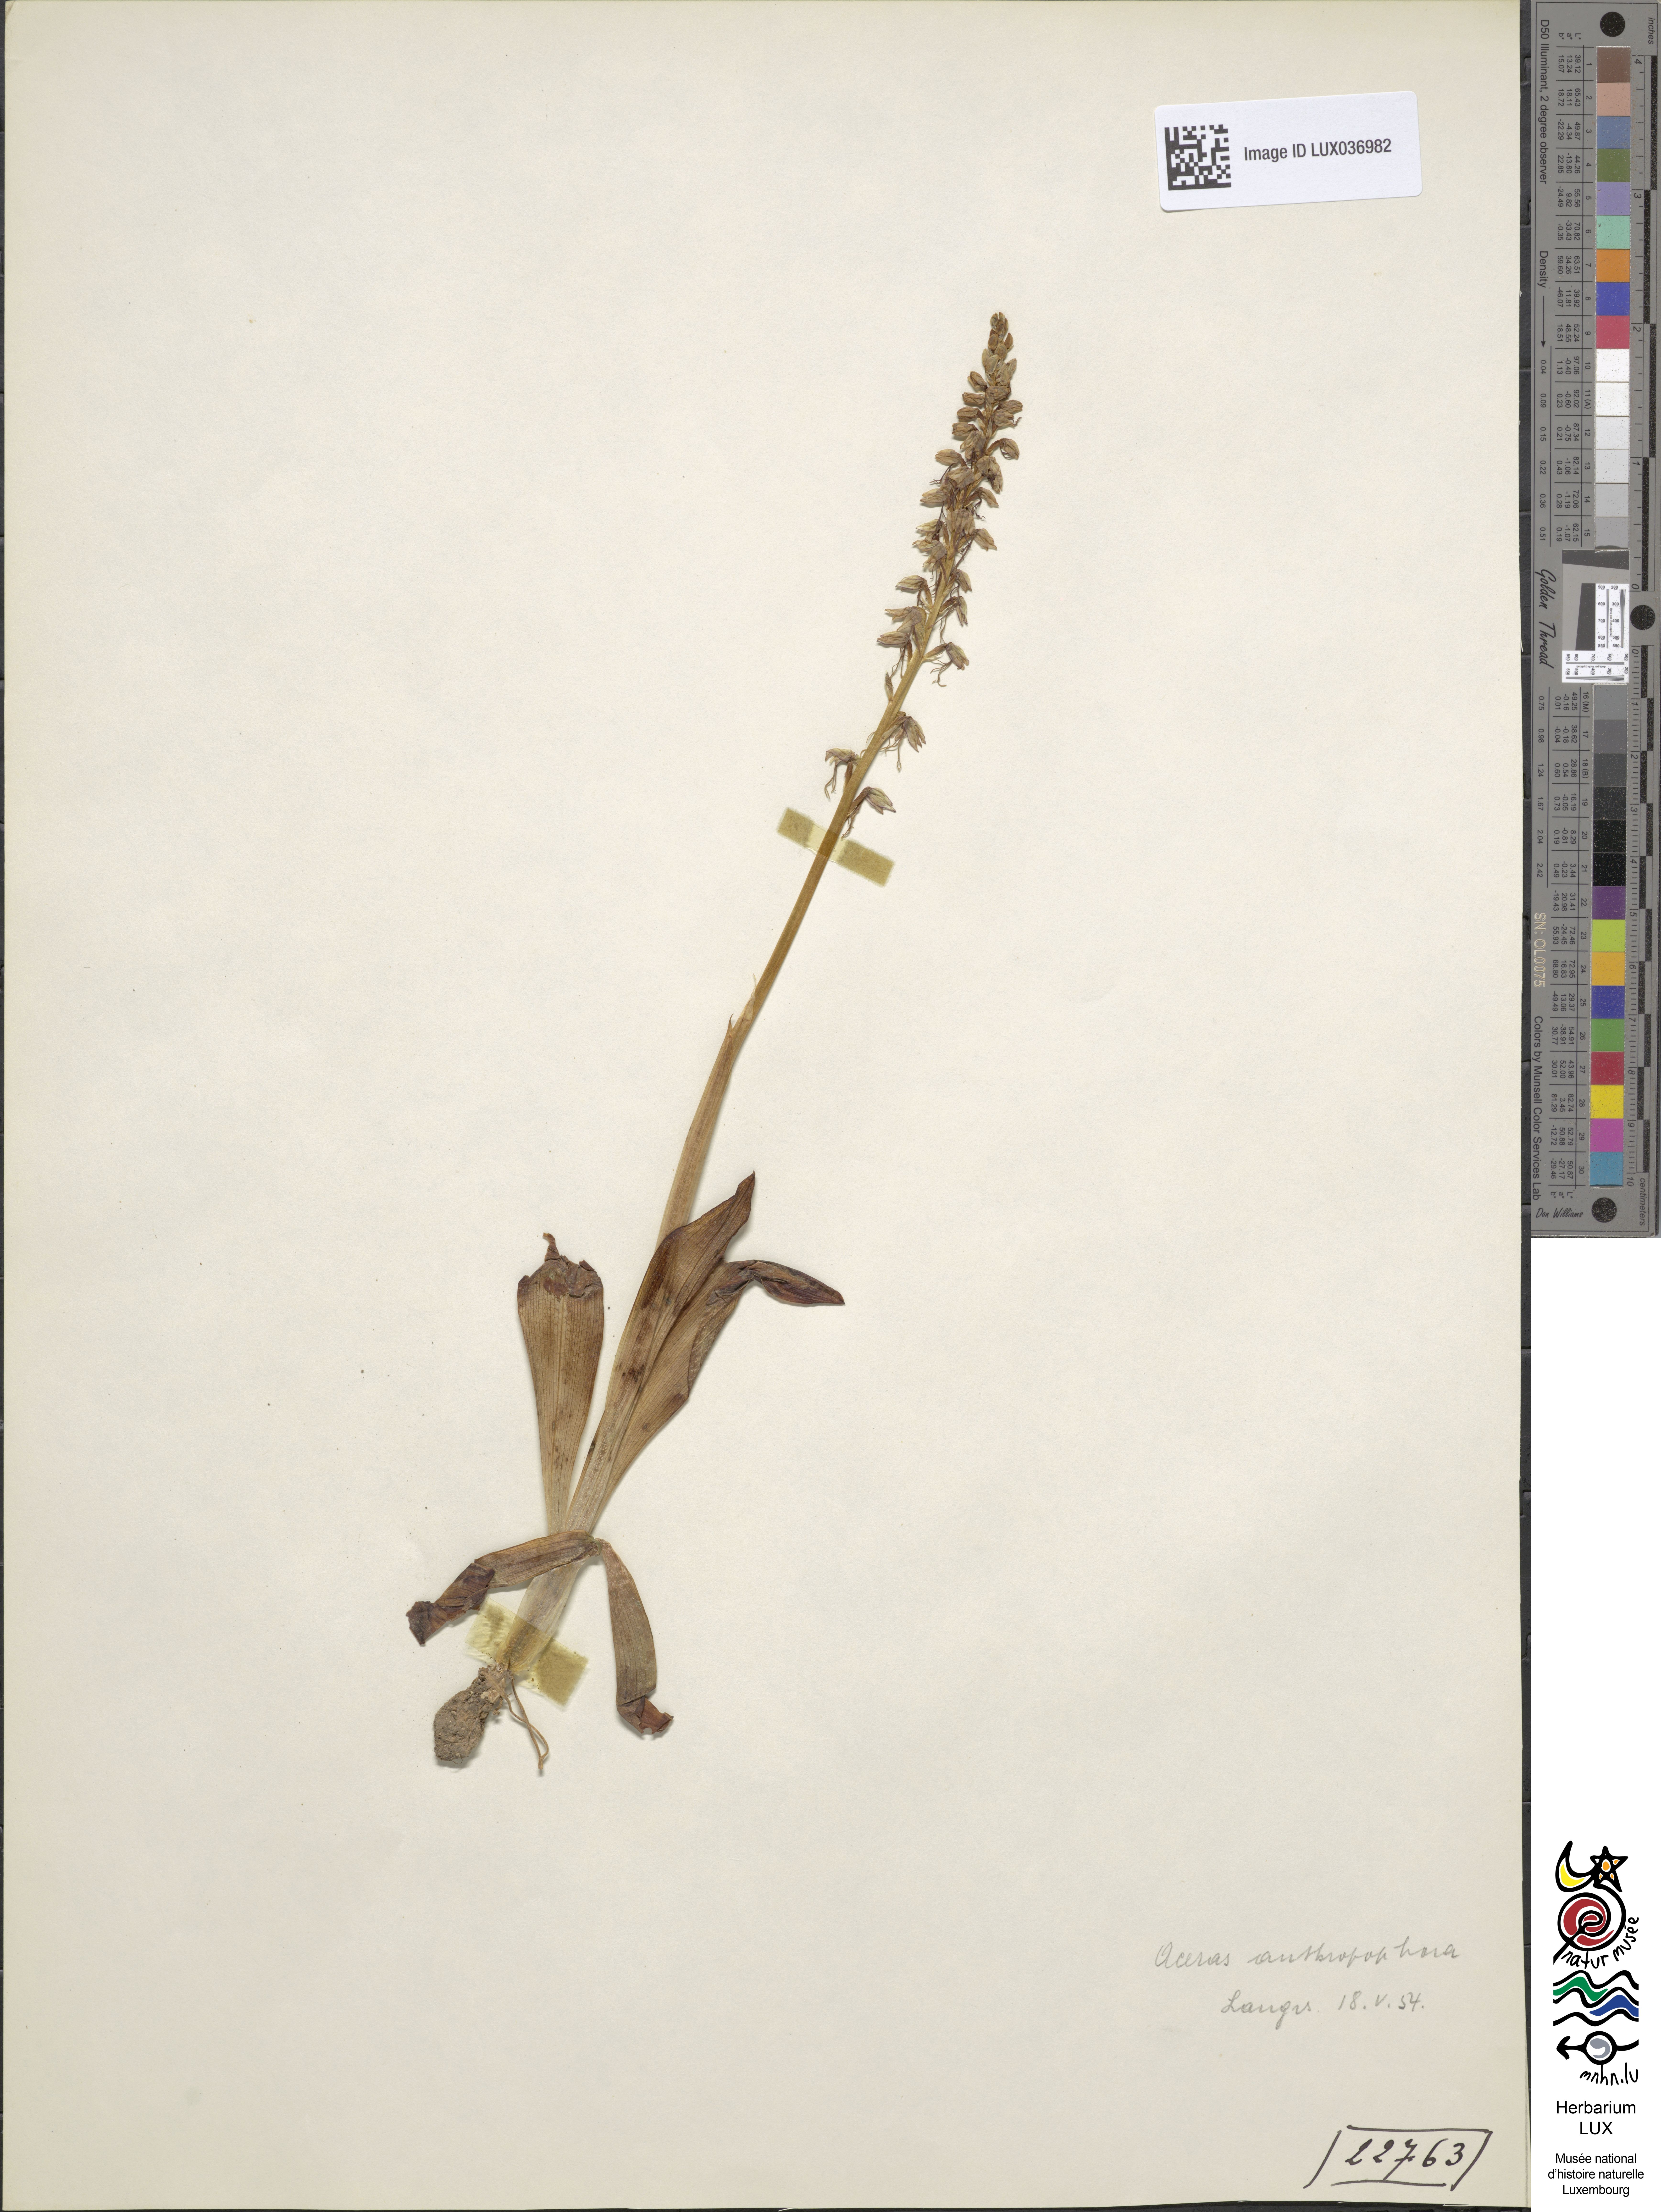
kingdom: Plantae
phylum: Tracheophyta
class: Liliopsida
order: Asparagales
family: Orchidaceae
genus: Orchis
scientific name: Orchis anthropophora
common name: Man orchid
